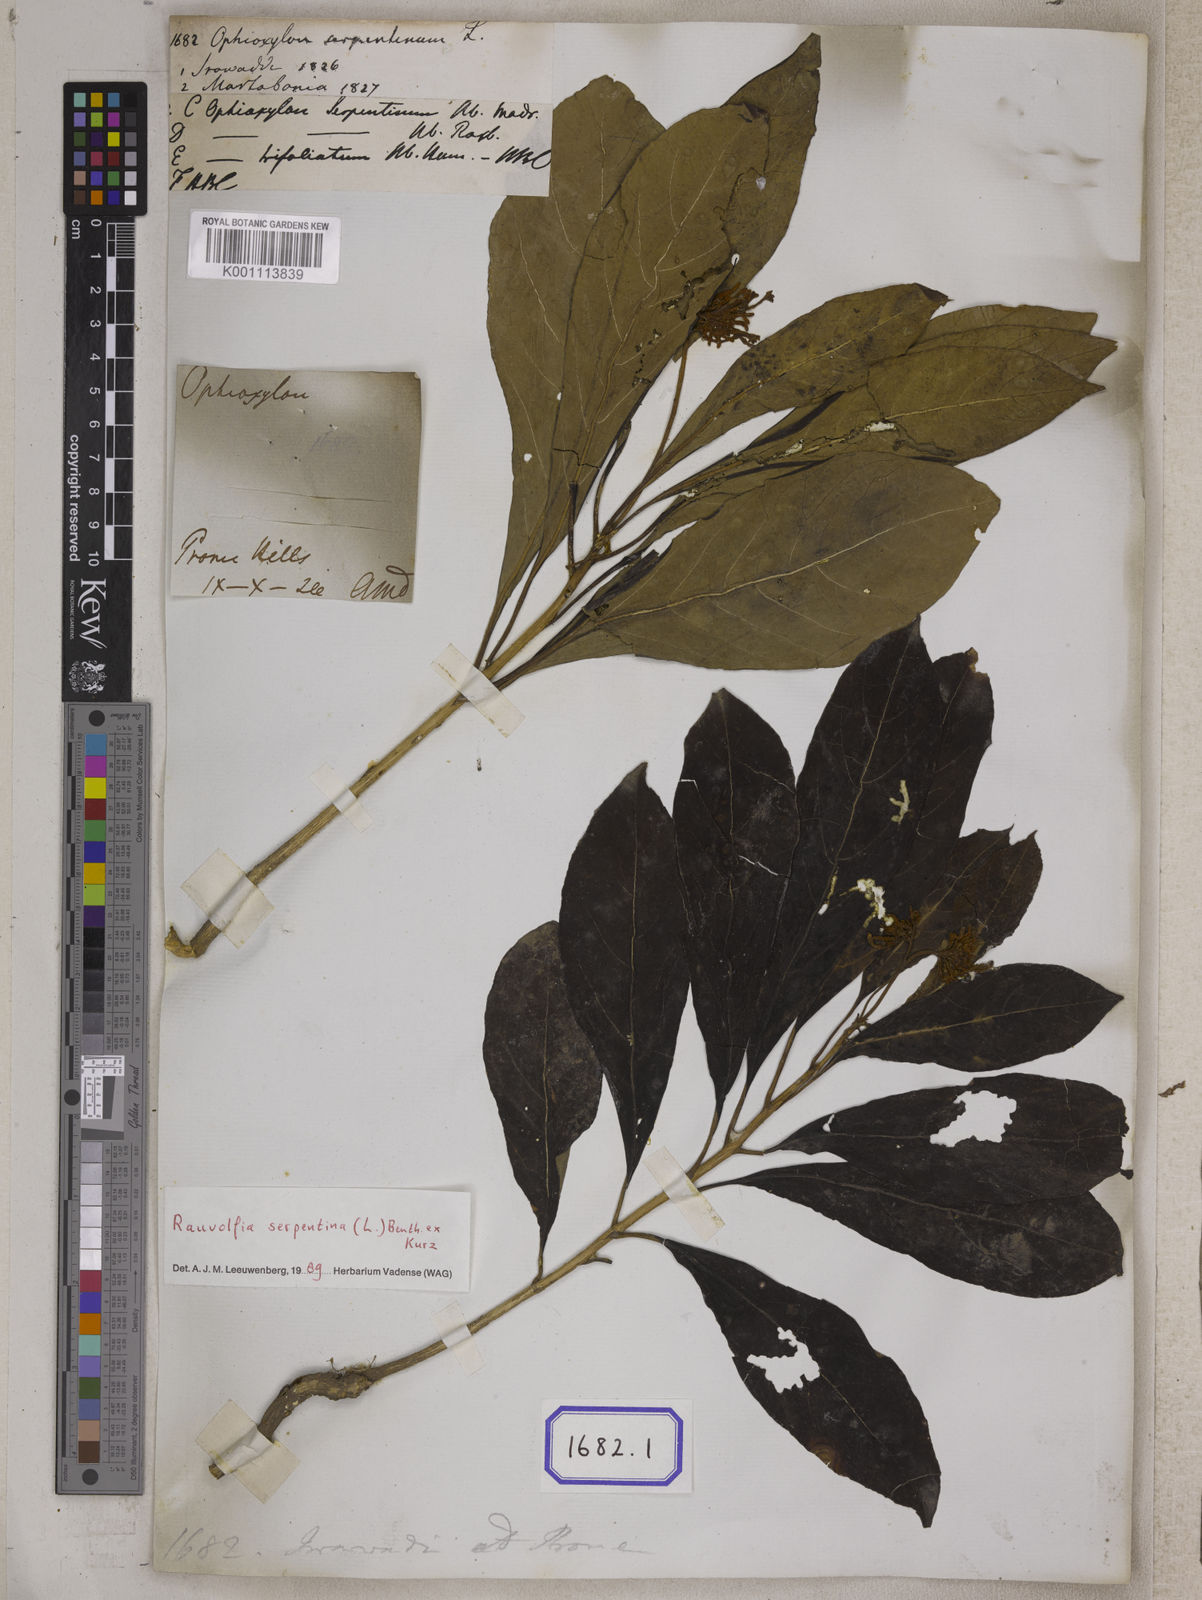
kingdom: Plantae
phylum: Tracheophyta
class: Magnoliopsida
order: Gentianales
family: Apocynaceae
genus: Rauvolfia
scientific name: Rauvolfia serpentina
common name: Ajmaline
